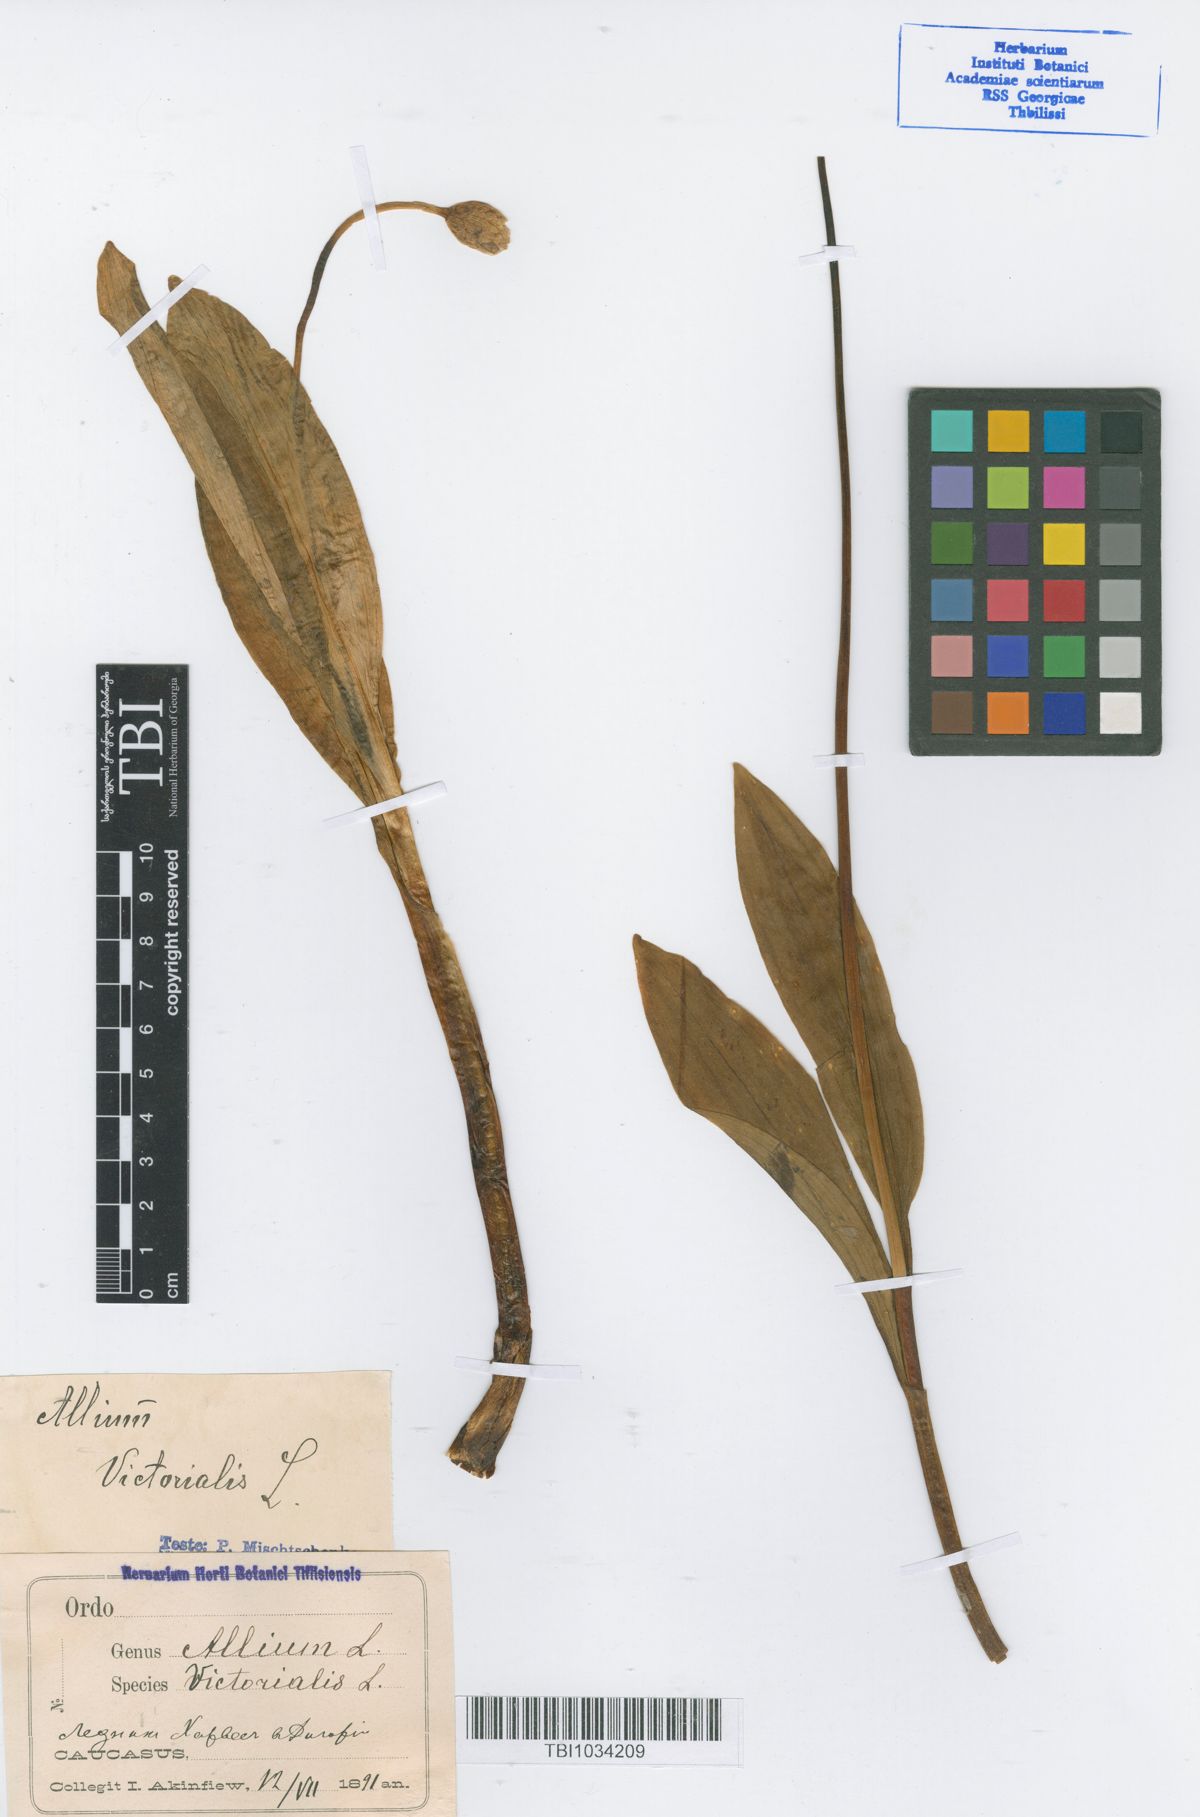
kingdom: Plantae
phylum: Tracheophyta
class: Liliopsida
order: Asparagales
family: Amaryllidaceae
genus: Allium
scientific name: Allium victorialis
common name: Alpine leek
